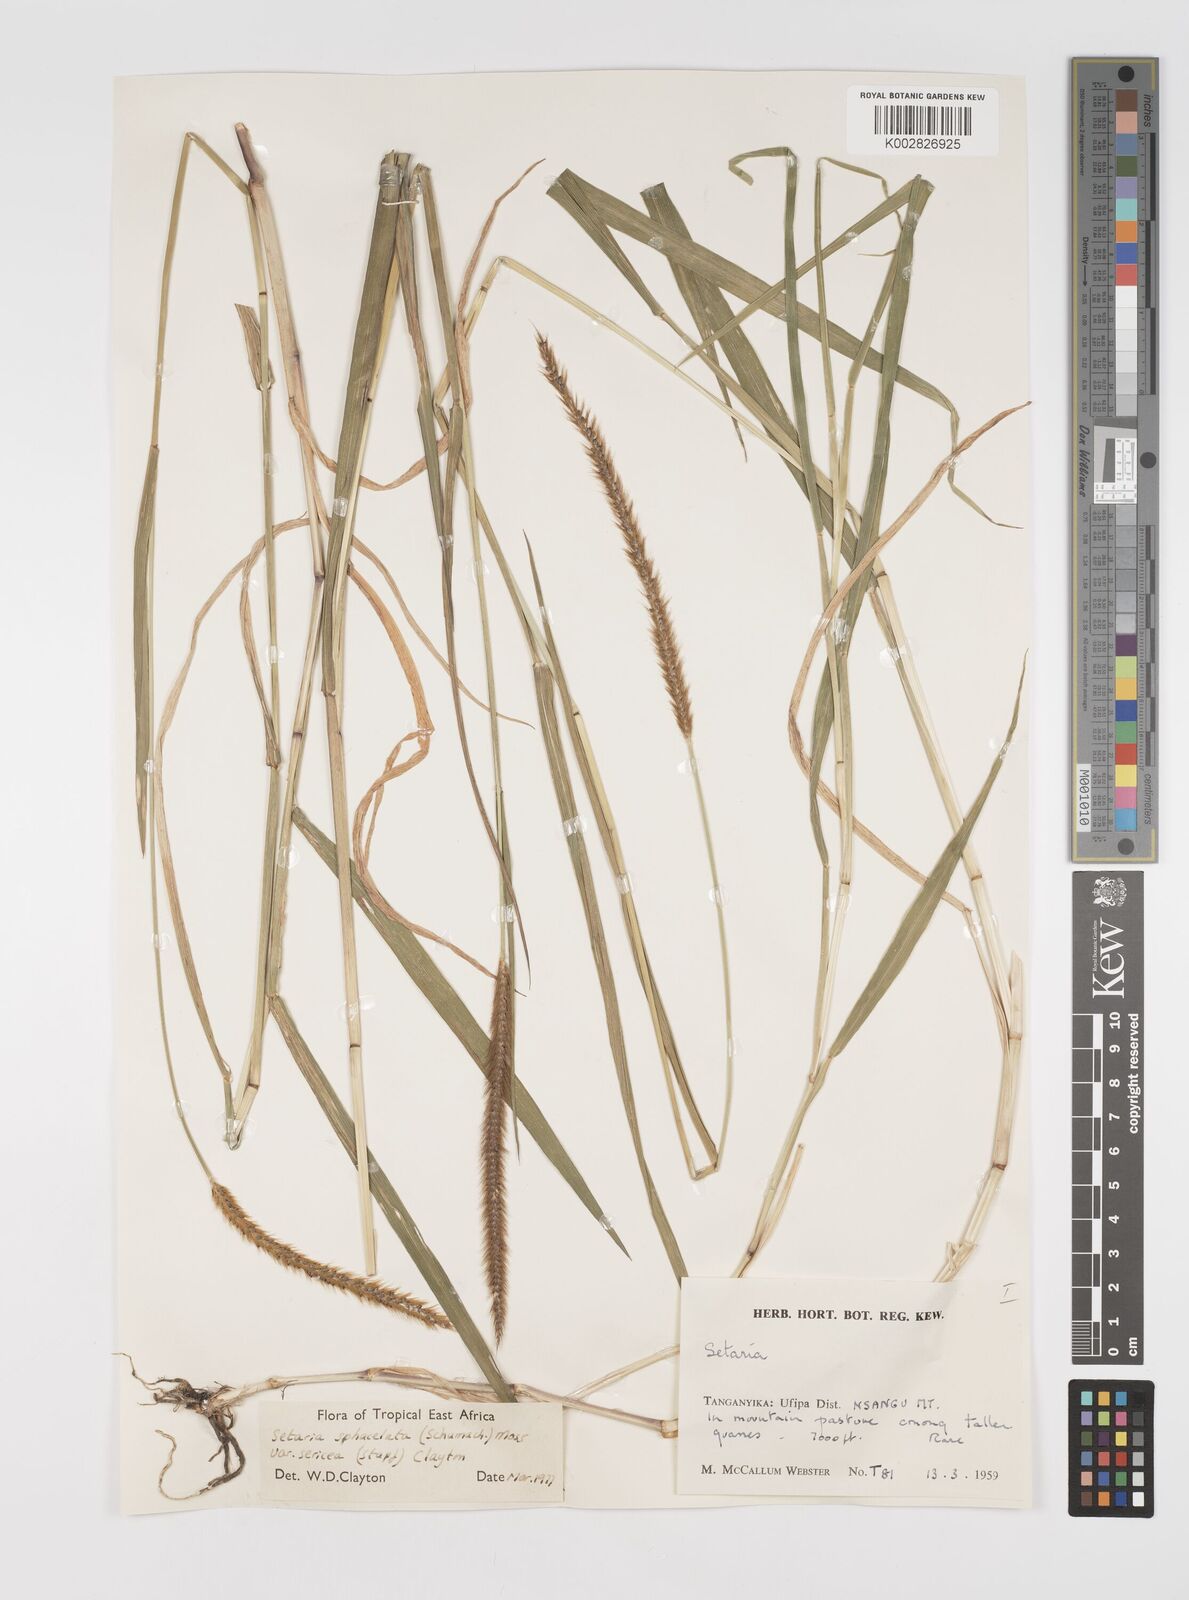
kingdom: Plantae
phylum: Tracheophyta
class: Liliopsida
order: Poales
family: Poaceae
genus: Setaria
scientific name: Setaria sphacelata
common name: African bristlegrass
